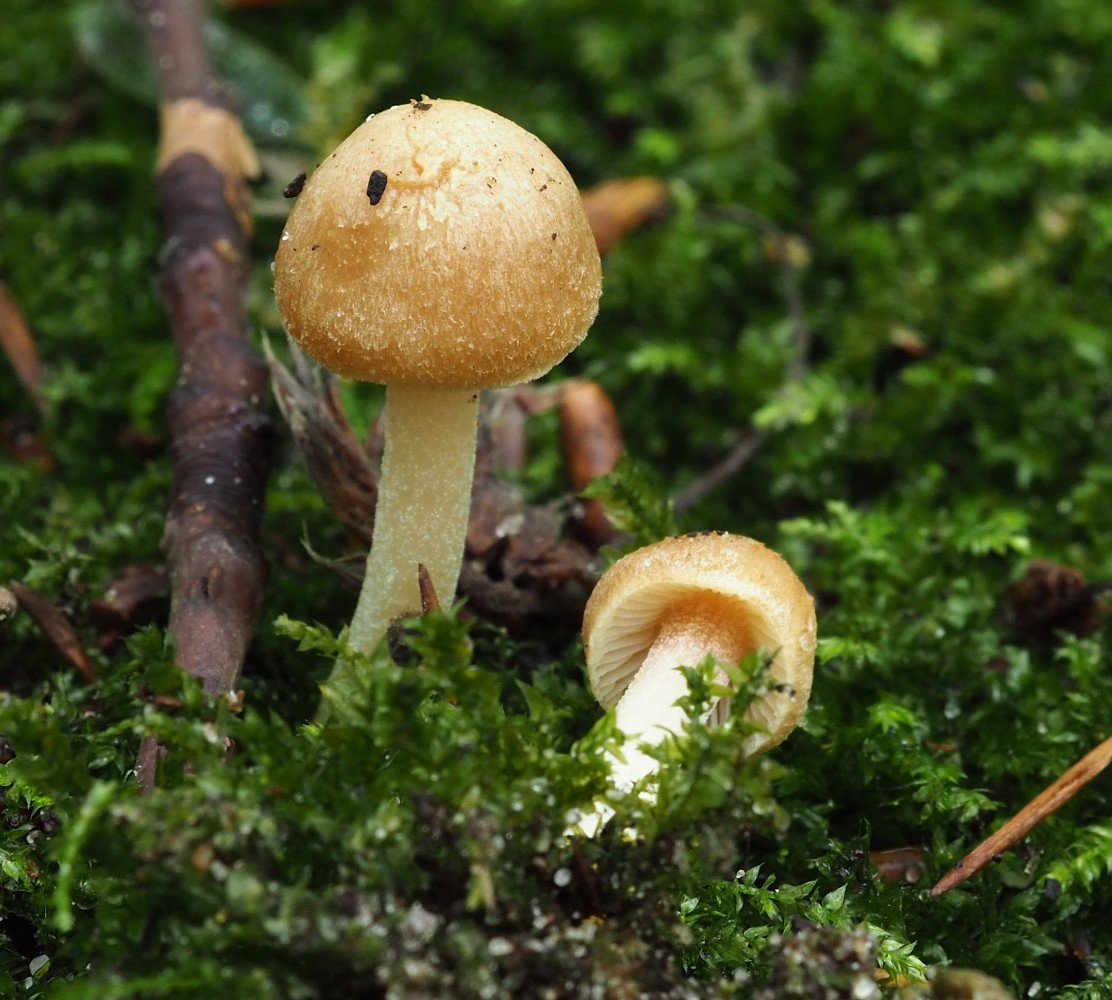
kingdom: Fungi
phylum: Basidiomycota
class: Agaricomycetes
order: Agaricales
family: Inocybaceae
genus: Inocybe
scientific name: Inocybe mycenoides
